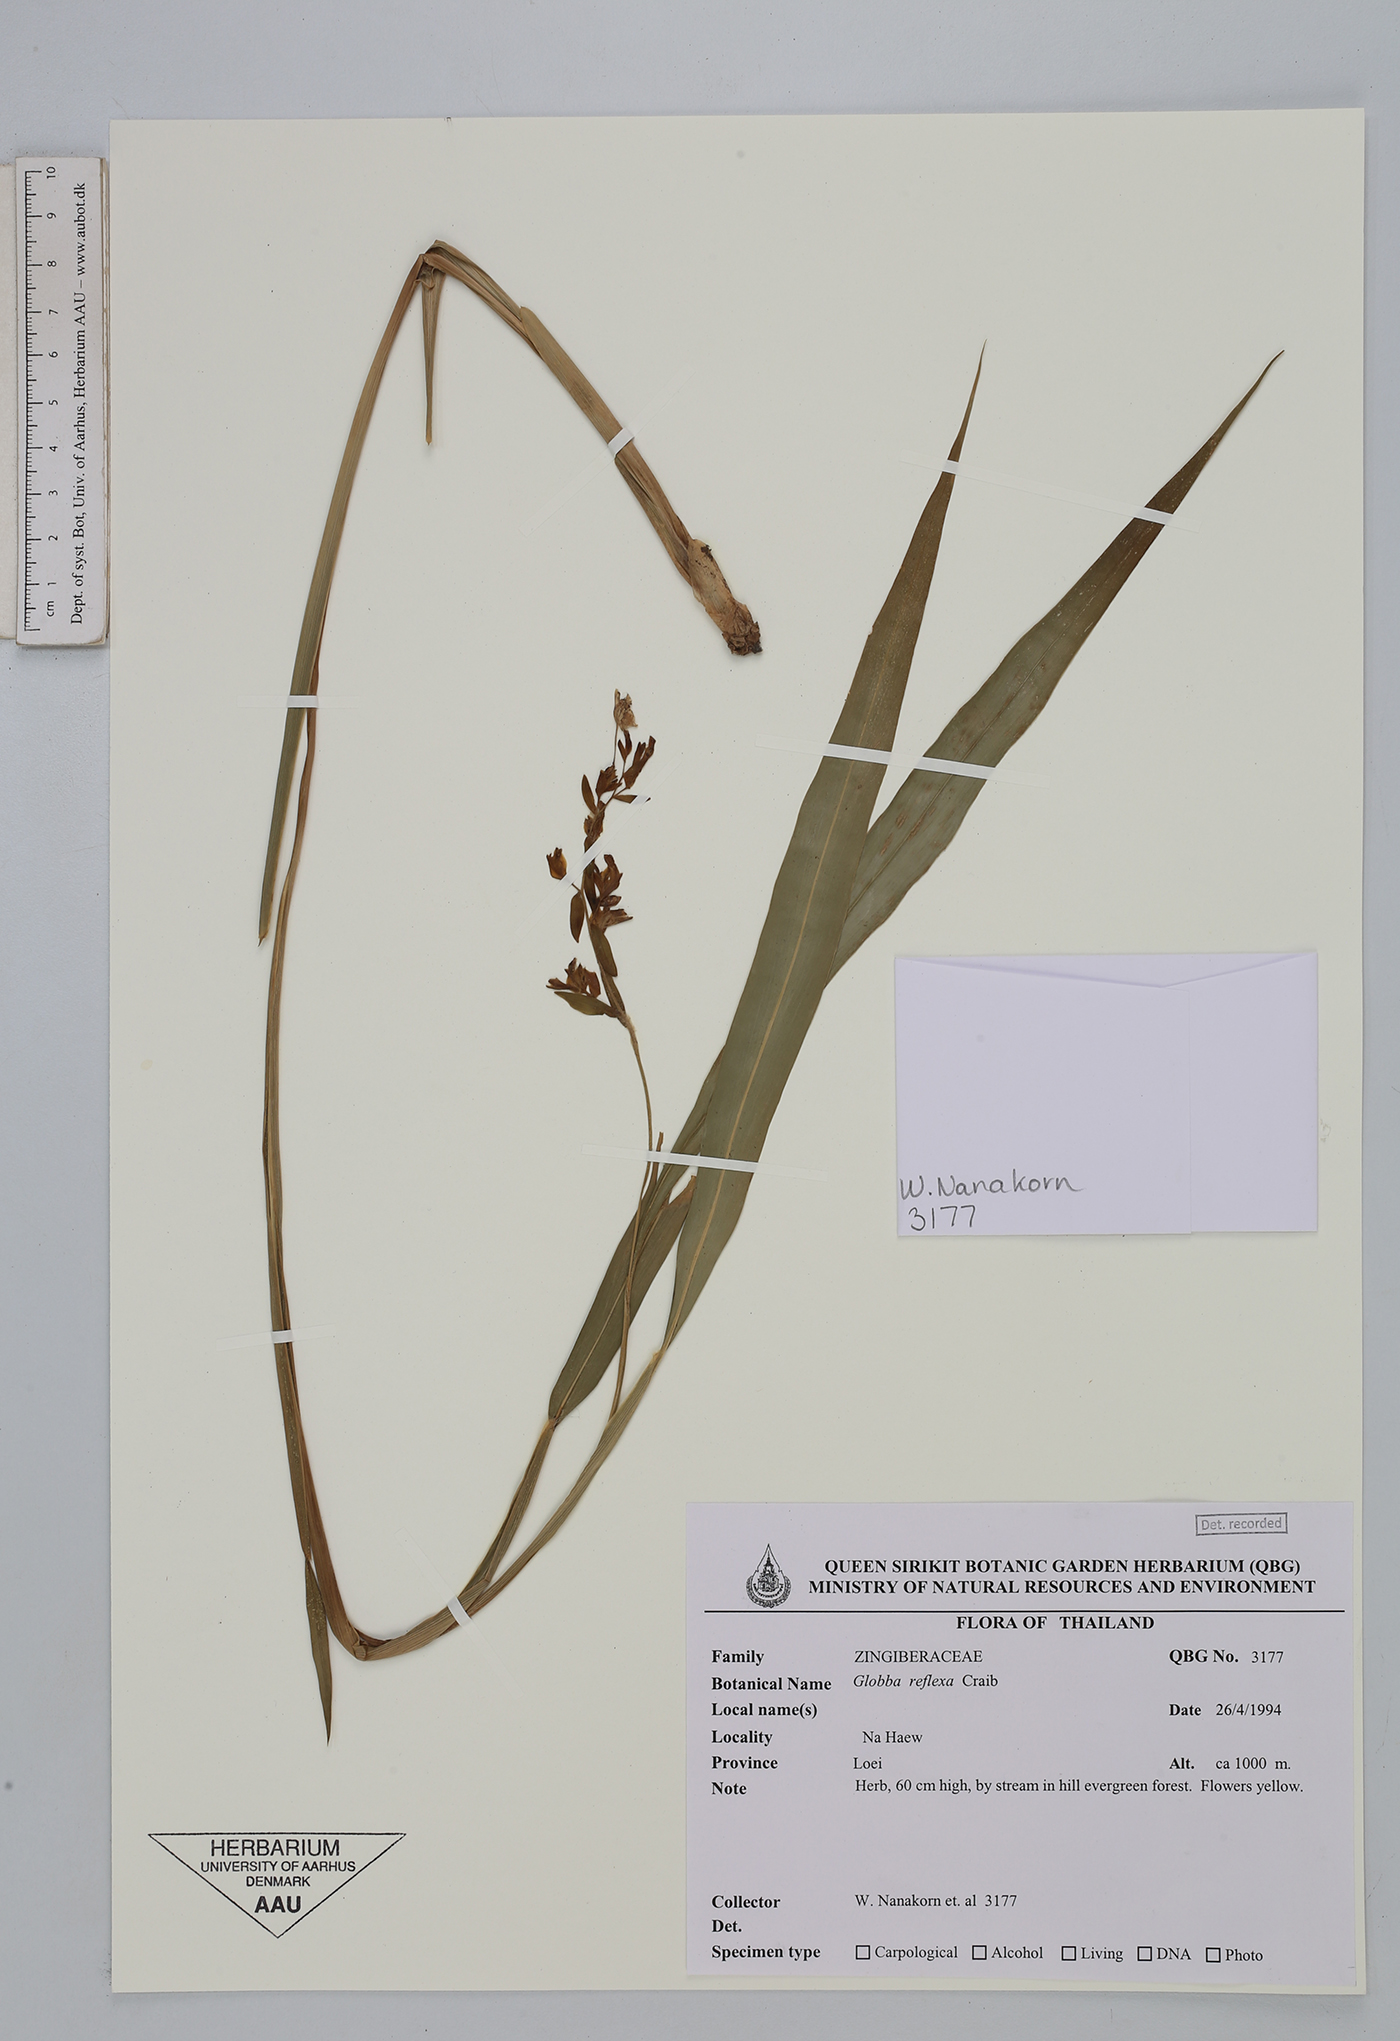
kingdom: Plantae
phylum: Tracheophyta
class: Liliopsida
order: Zingiberales
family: Zingiberaceae
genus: Globba
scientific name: Globba reflexa
